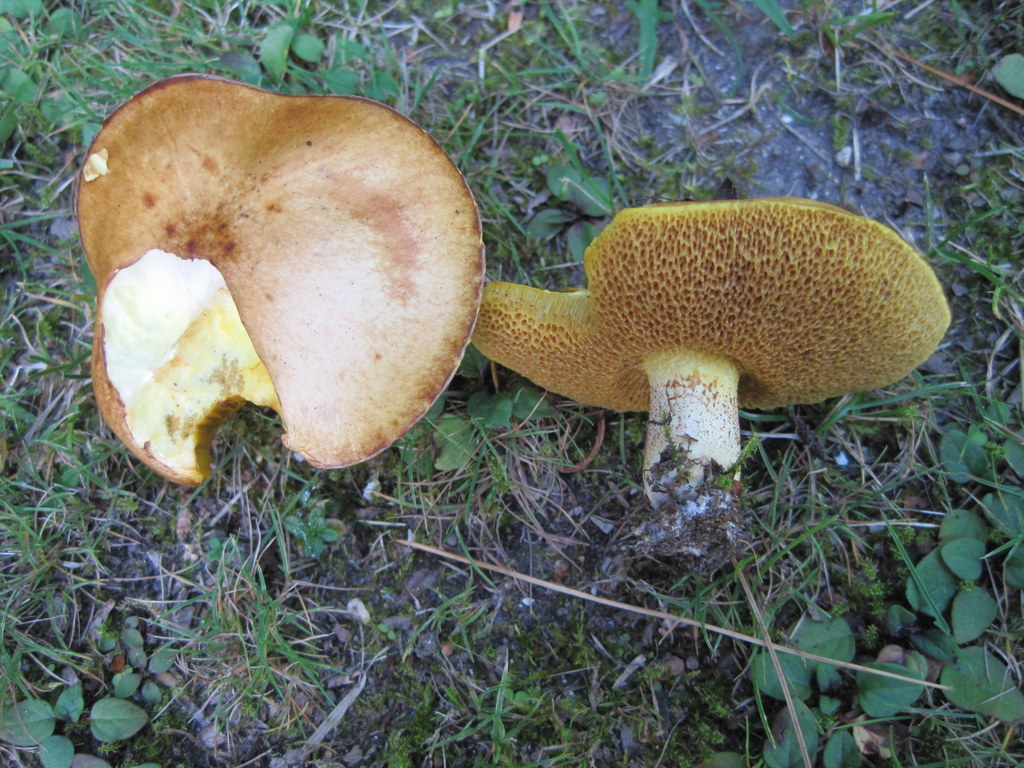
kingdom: Fungi
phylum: Basidiomycota
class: Agaricomycetes
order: Boletales
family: Suillaceae
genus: Suillus
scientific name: Suillus granulatus
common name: kornet slimrørhat
